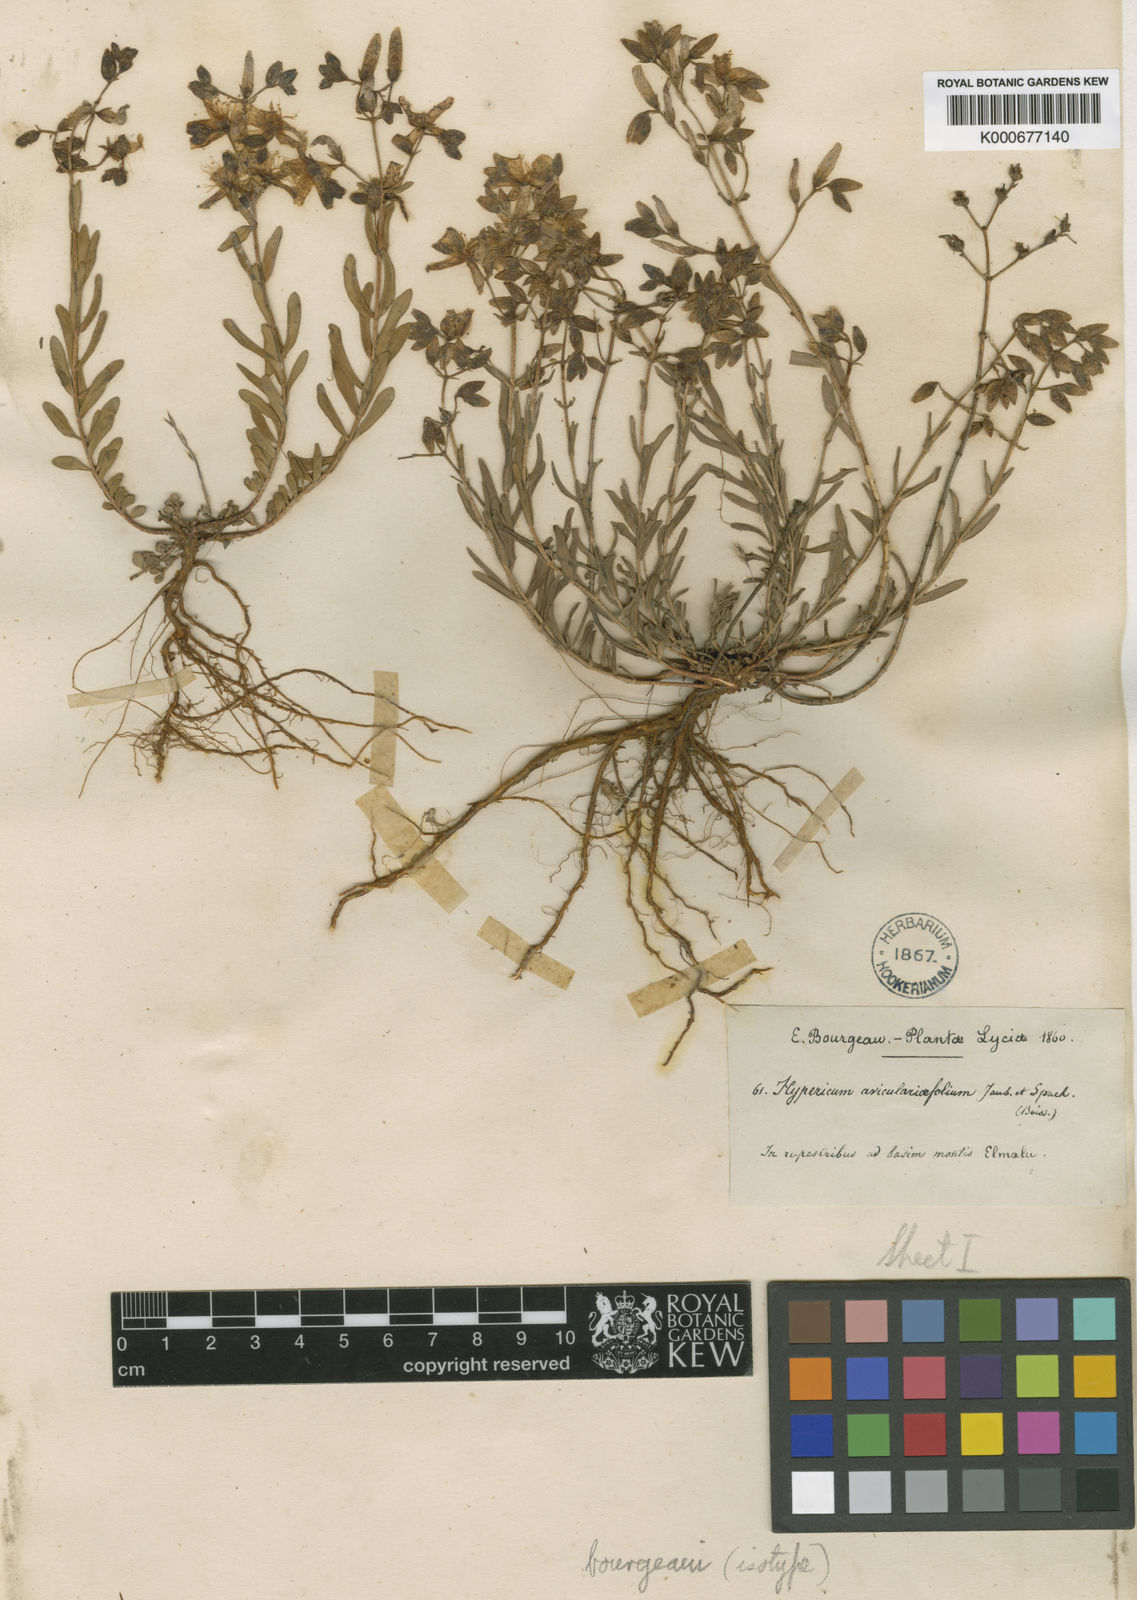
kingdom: Plantae
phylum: Tracheophyta
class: Magnoliopsida
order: Malpighiales
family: Hypericaceae
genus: Hypericum
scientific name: Hypericum
